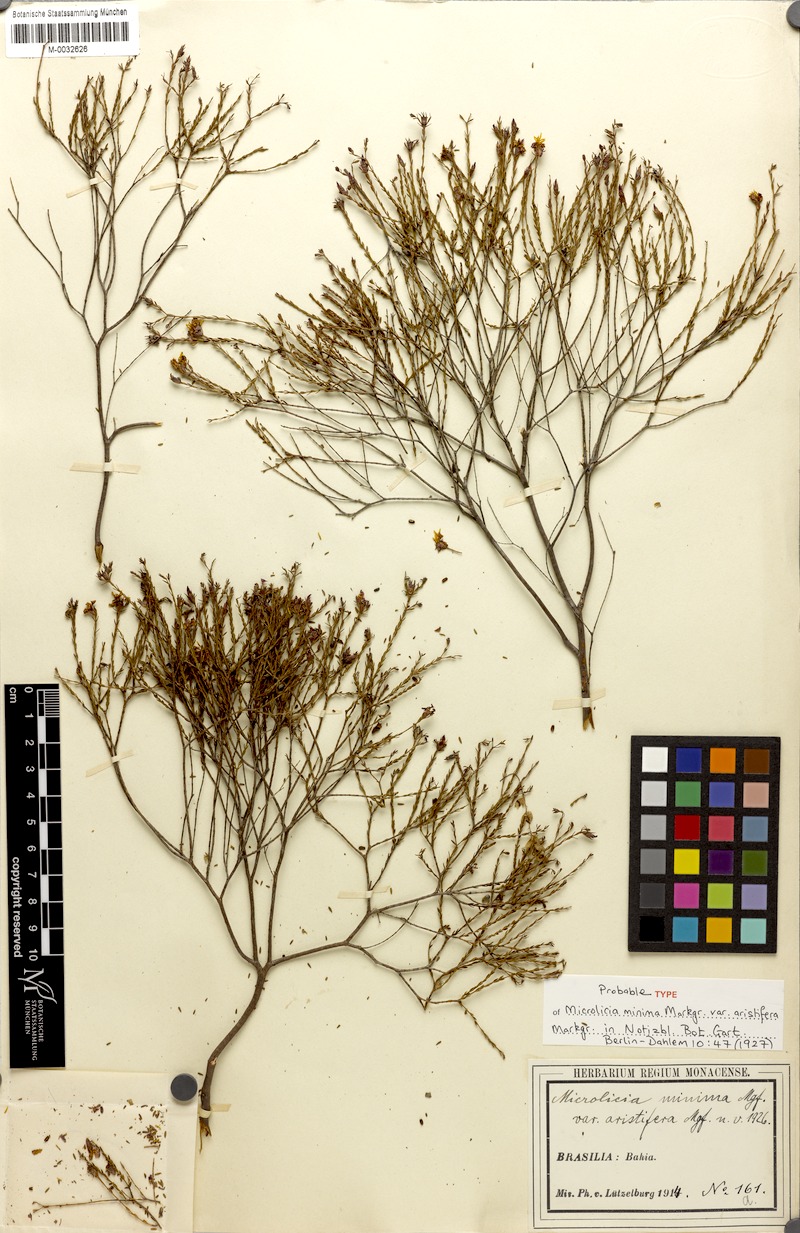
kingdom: Plantae
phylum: Tracheophyta
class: Magnoliopsida
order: Myrtales
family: Melastomataceae
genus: Microlicia
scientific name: Microlicia minima
